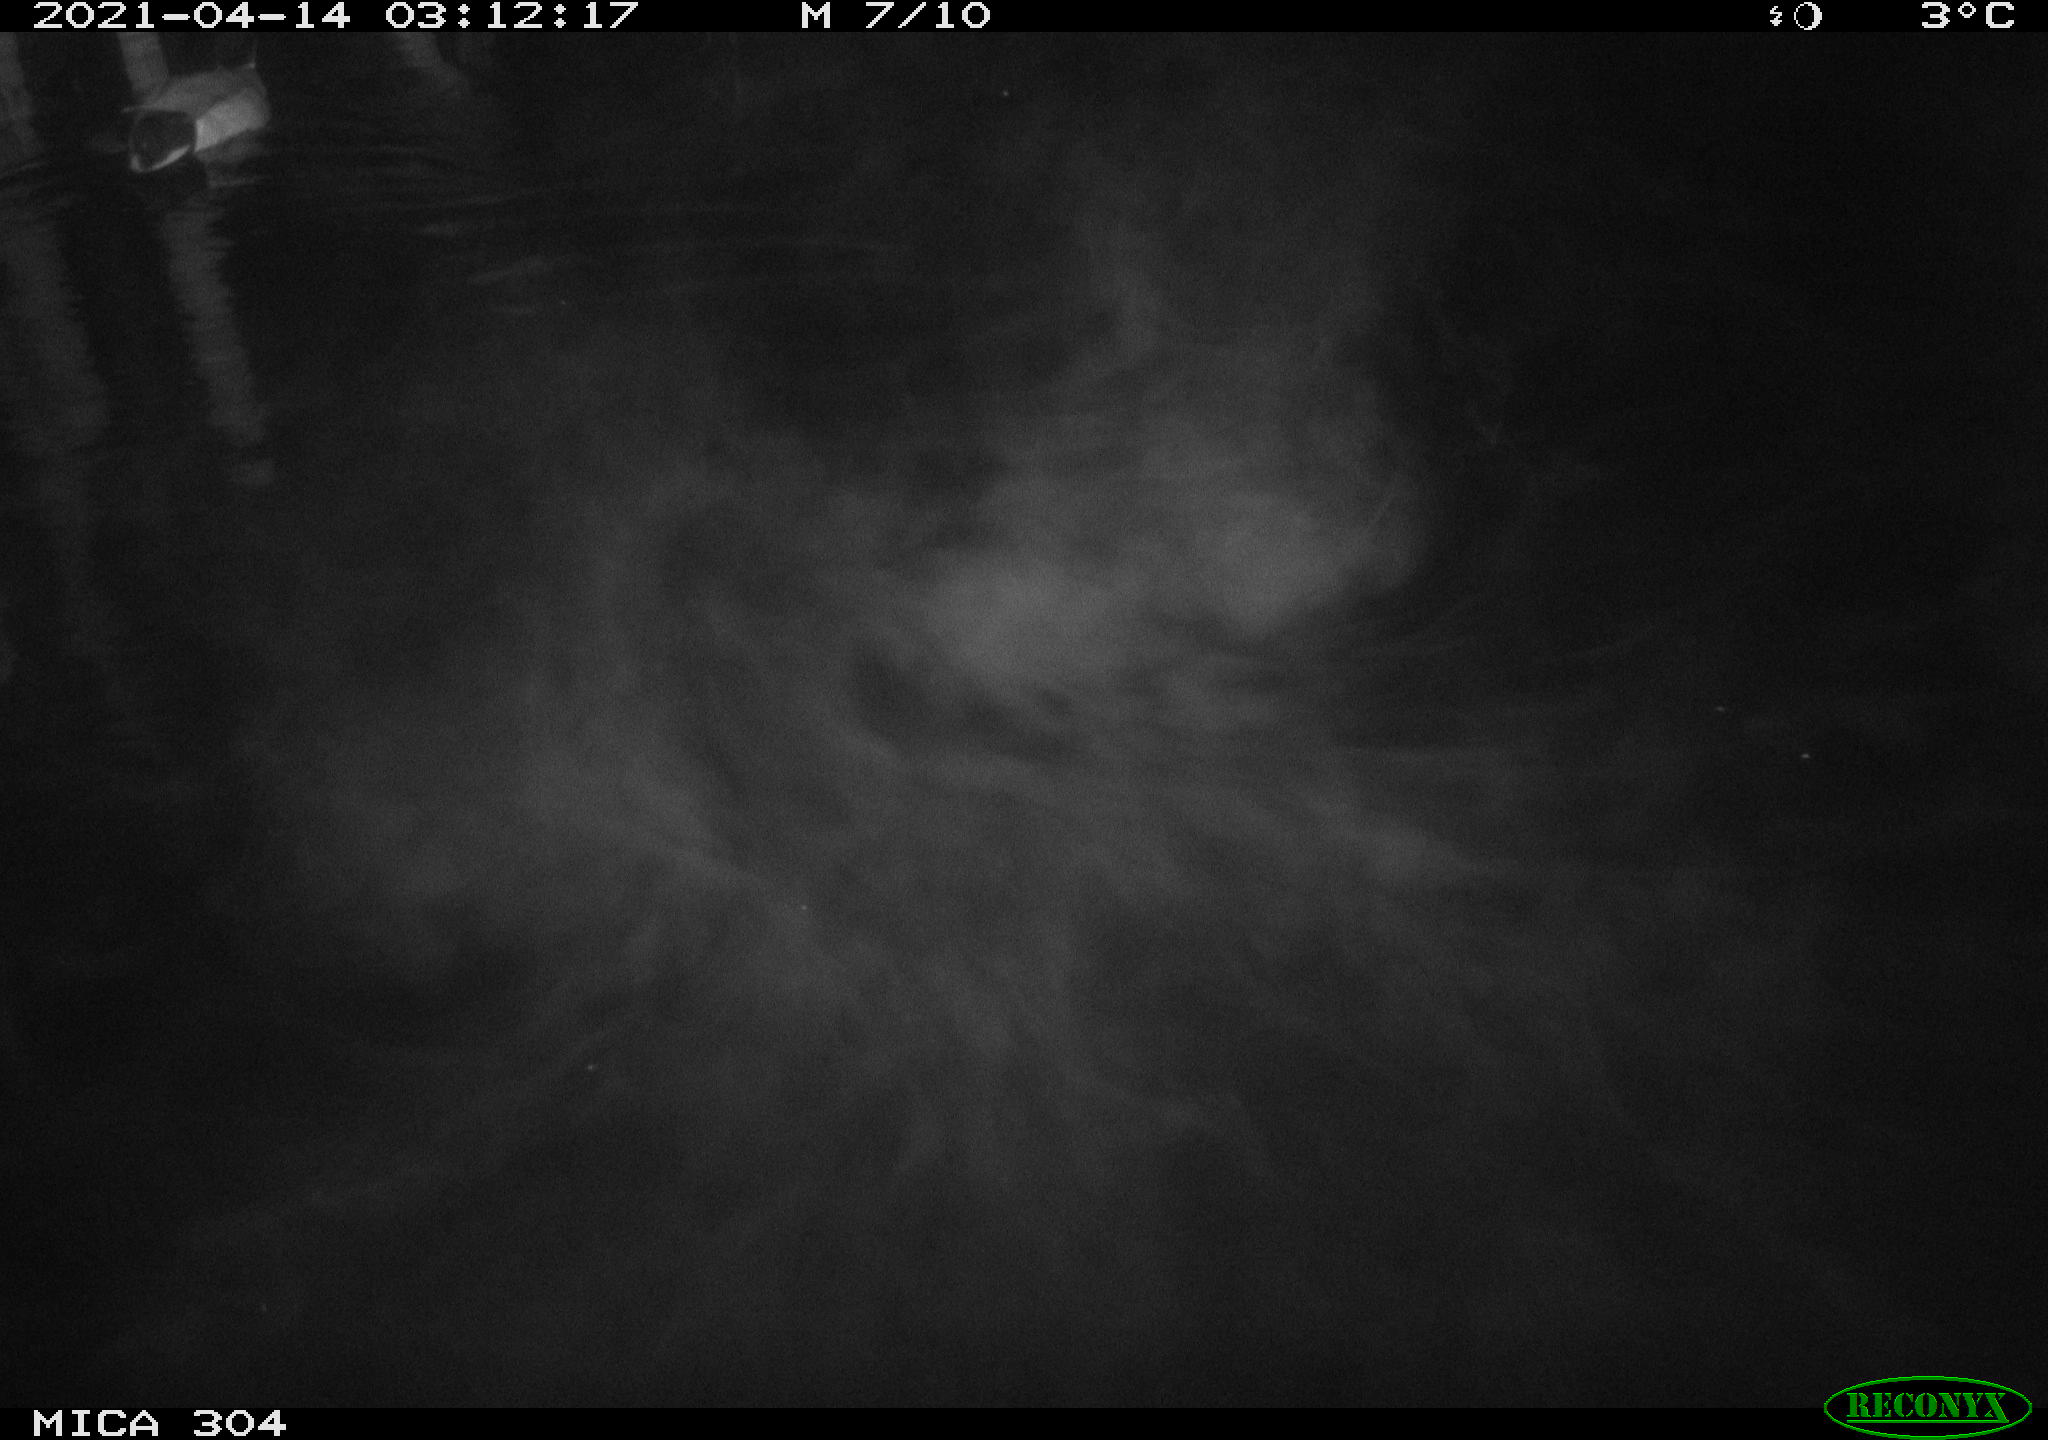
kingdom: Animalia
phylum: Chordata
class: Aves
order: Anseriformes
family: Anatidae
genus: Anas
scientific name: Anas
